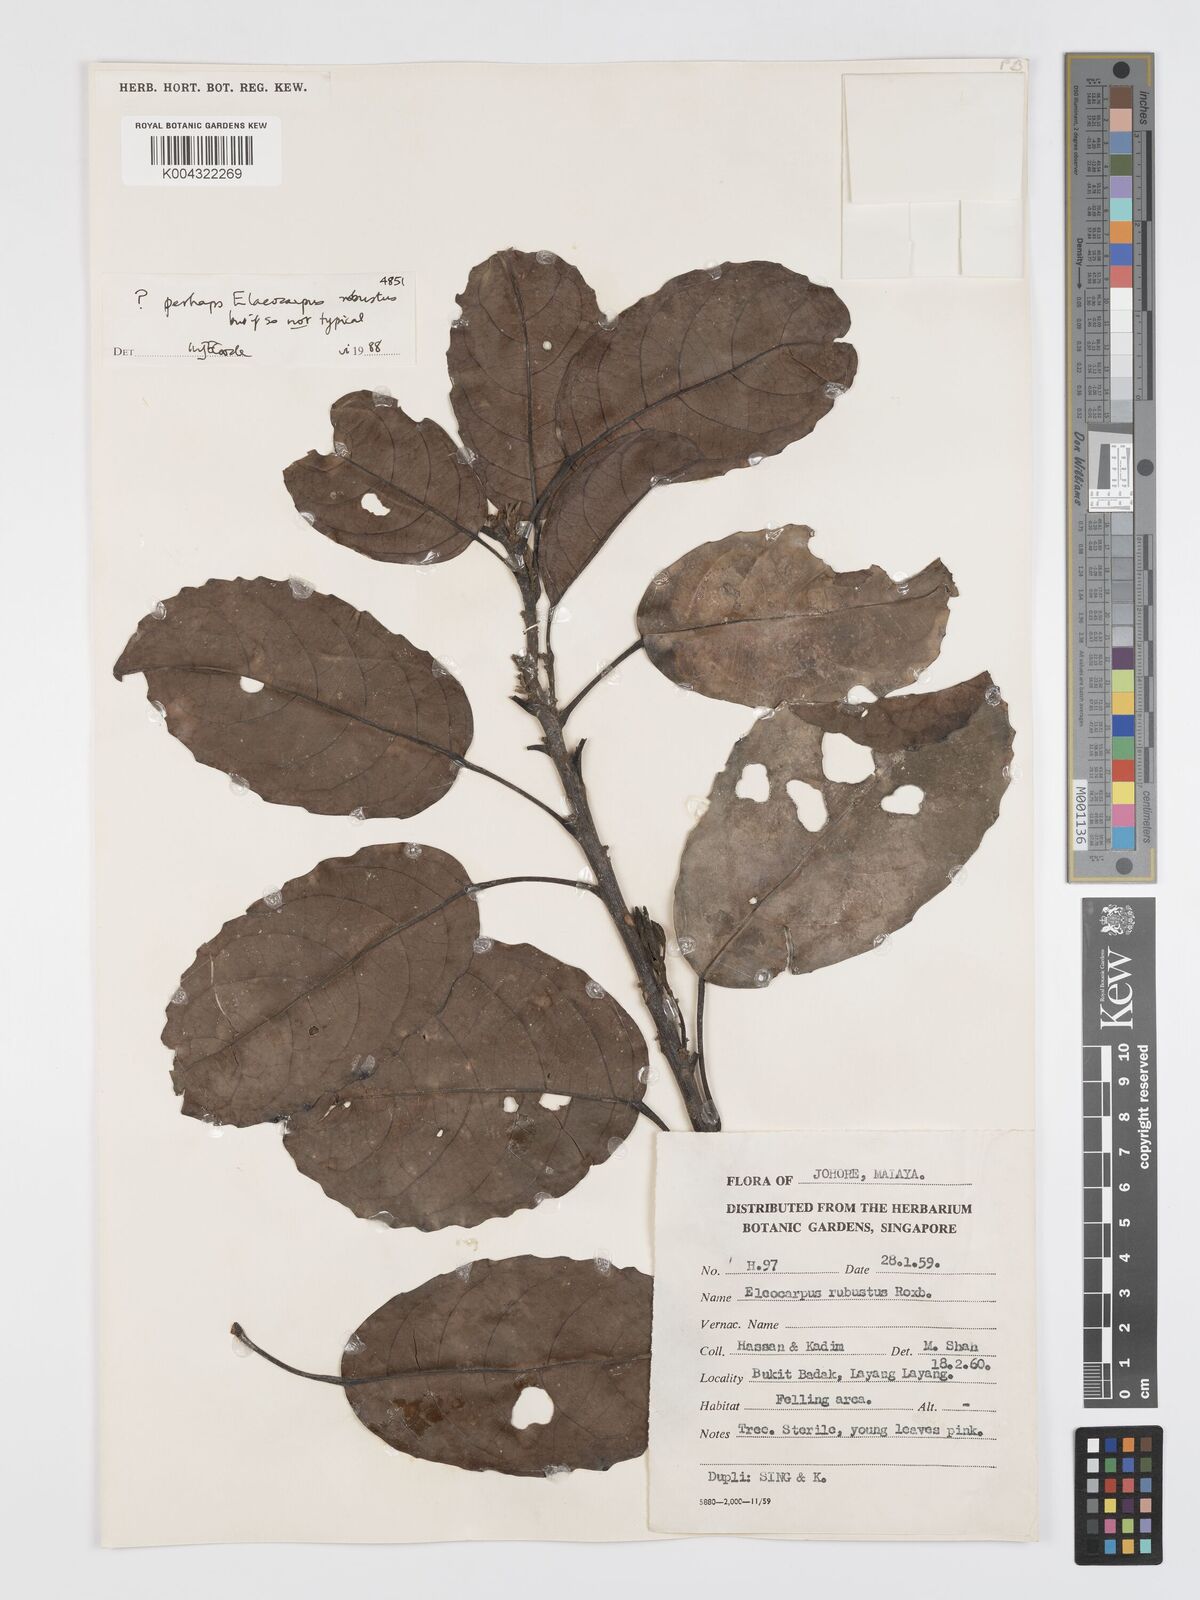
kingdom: Plantae
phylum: Tracheophyta
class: Magnoliopsida
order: Oxalidales
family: Elaeocarpaceae
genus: Elaeocarpus
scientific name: Elaeocarpus robustus
